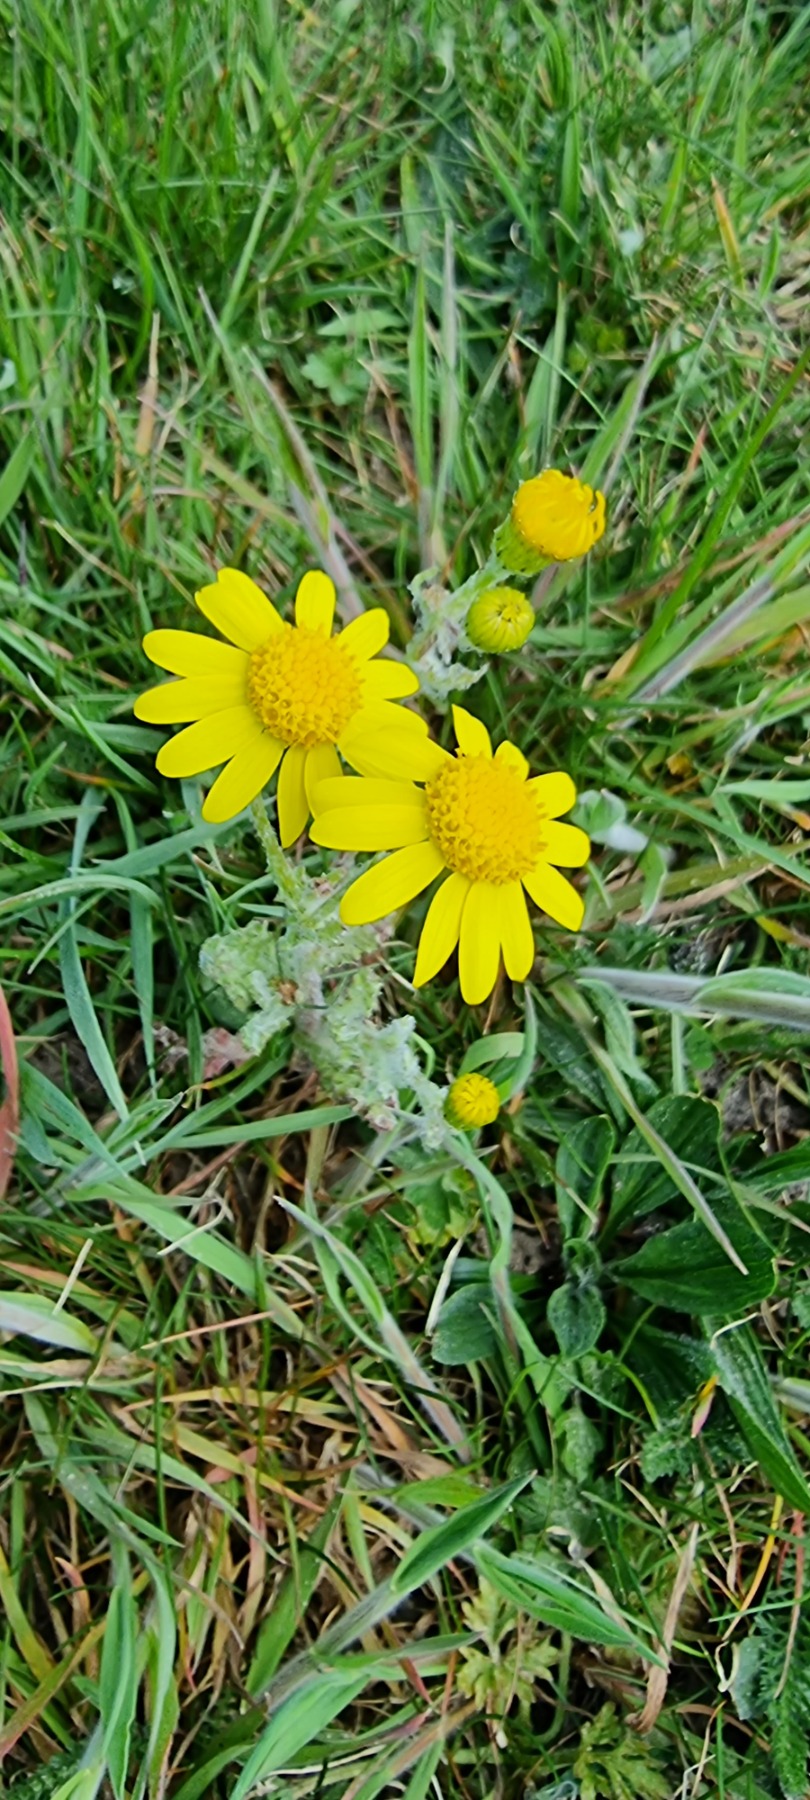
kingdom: Plantae
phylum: Tracheophyta
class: Magnoliopsida
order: Asterales
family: Asteraceae
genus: Senecio
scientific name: Senecio leucanthemifolius
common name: Vår-brandbæger
